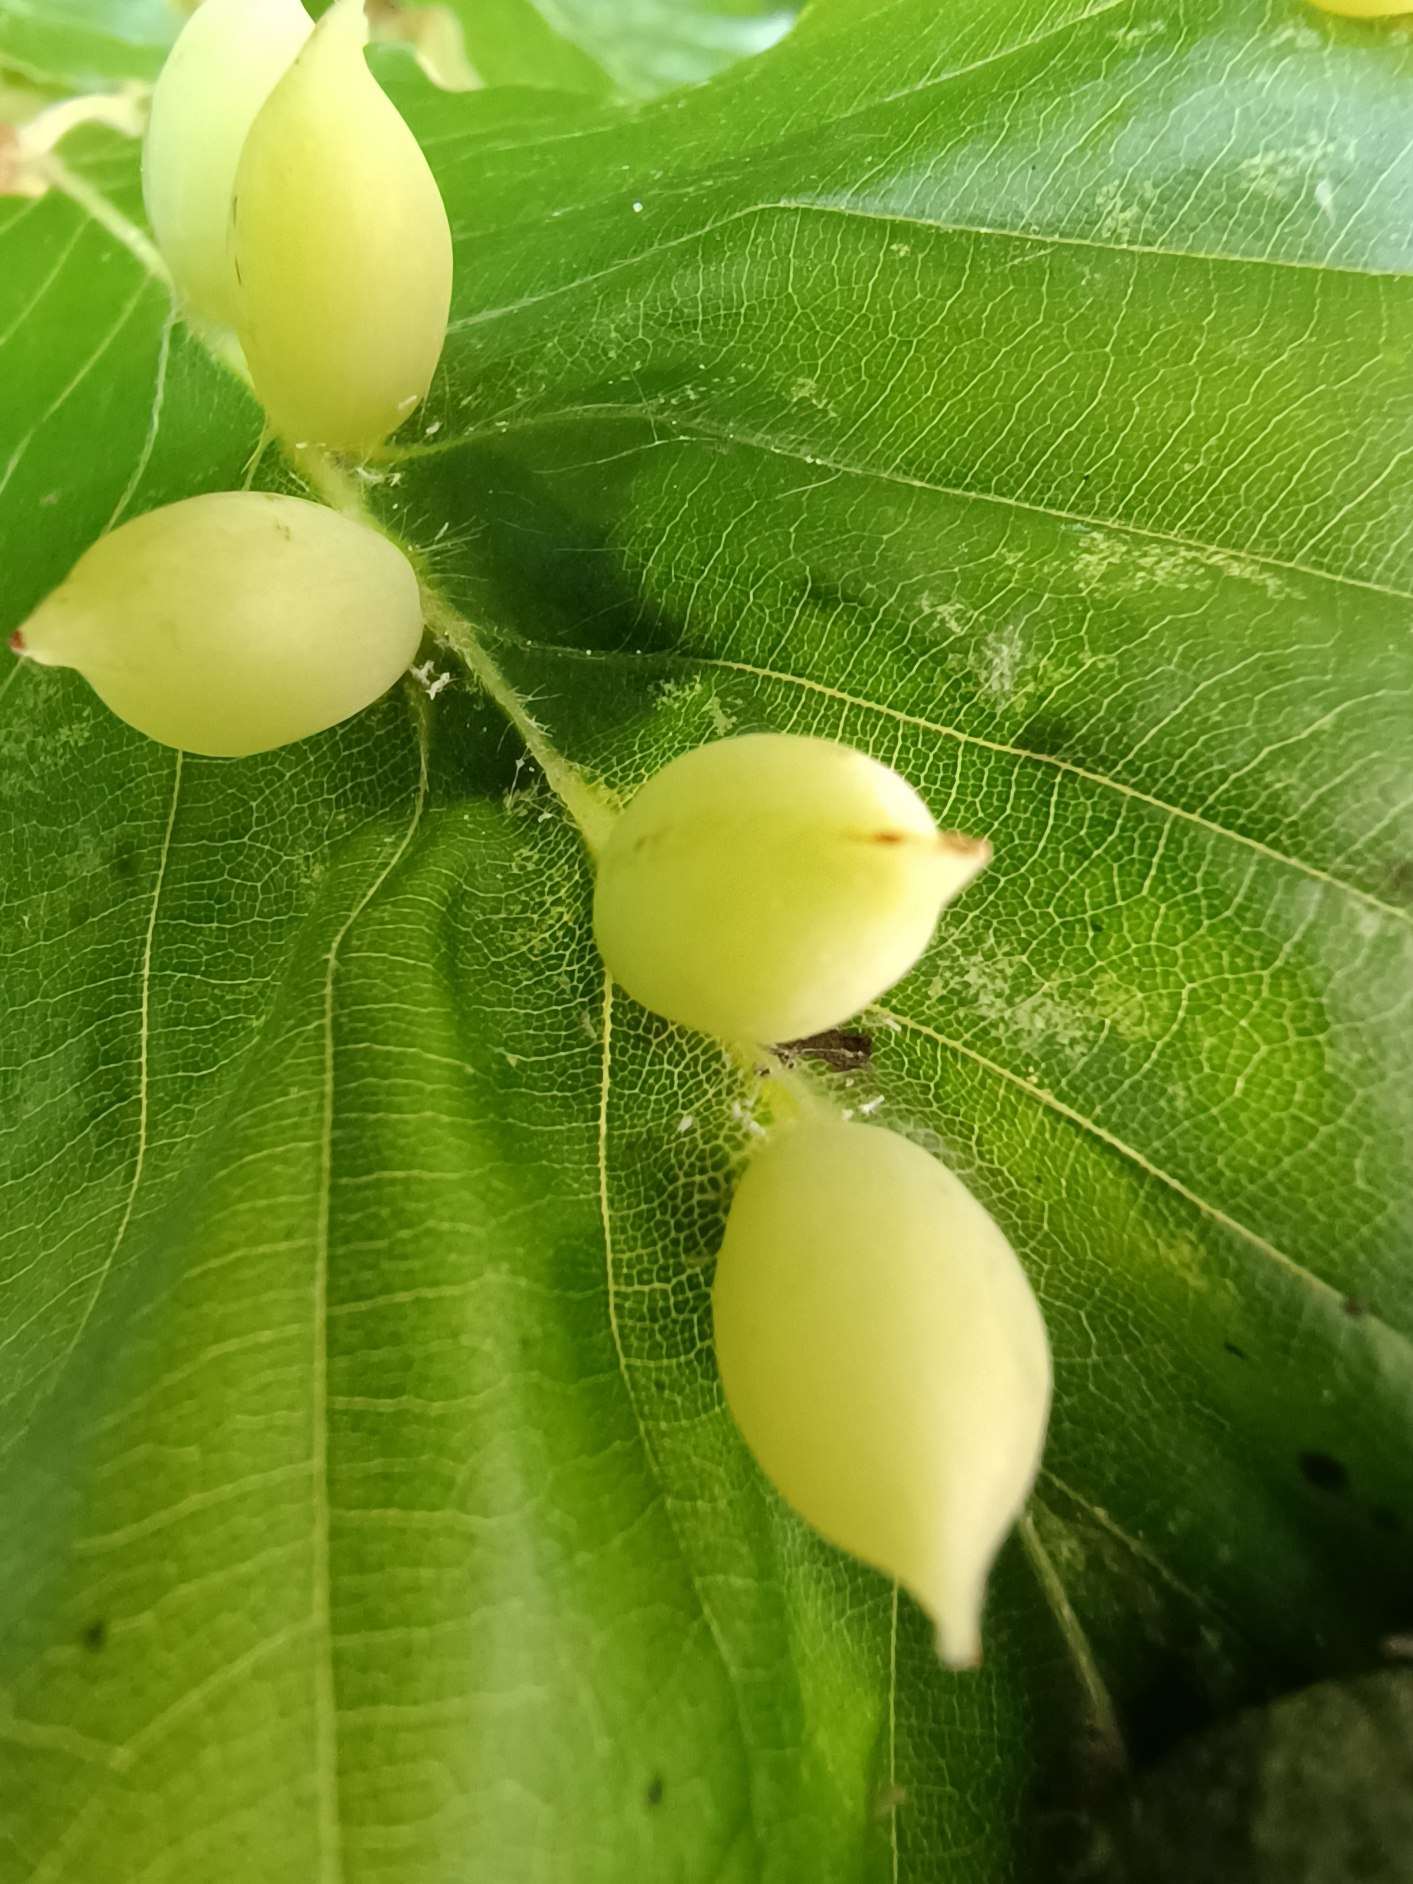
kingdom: Animalia
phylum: Arthropoda
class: Insecta
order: Diptera
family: Cecidomyiidae
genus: Mikiola
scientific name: Mikiola fagi
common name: Bøgegalmyg
